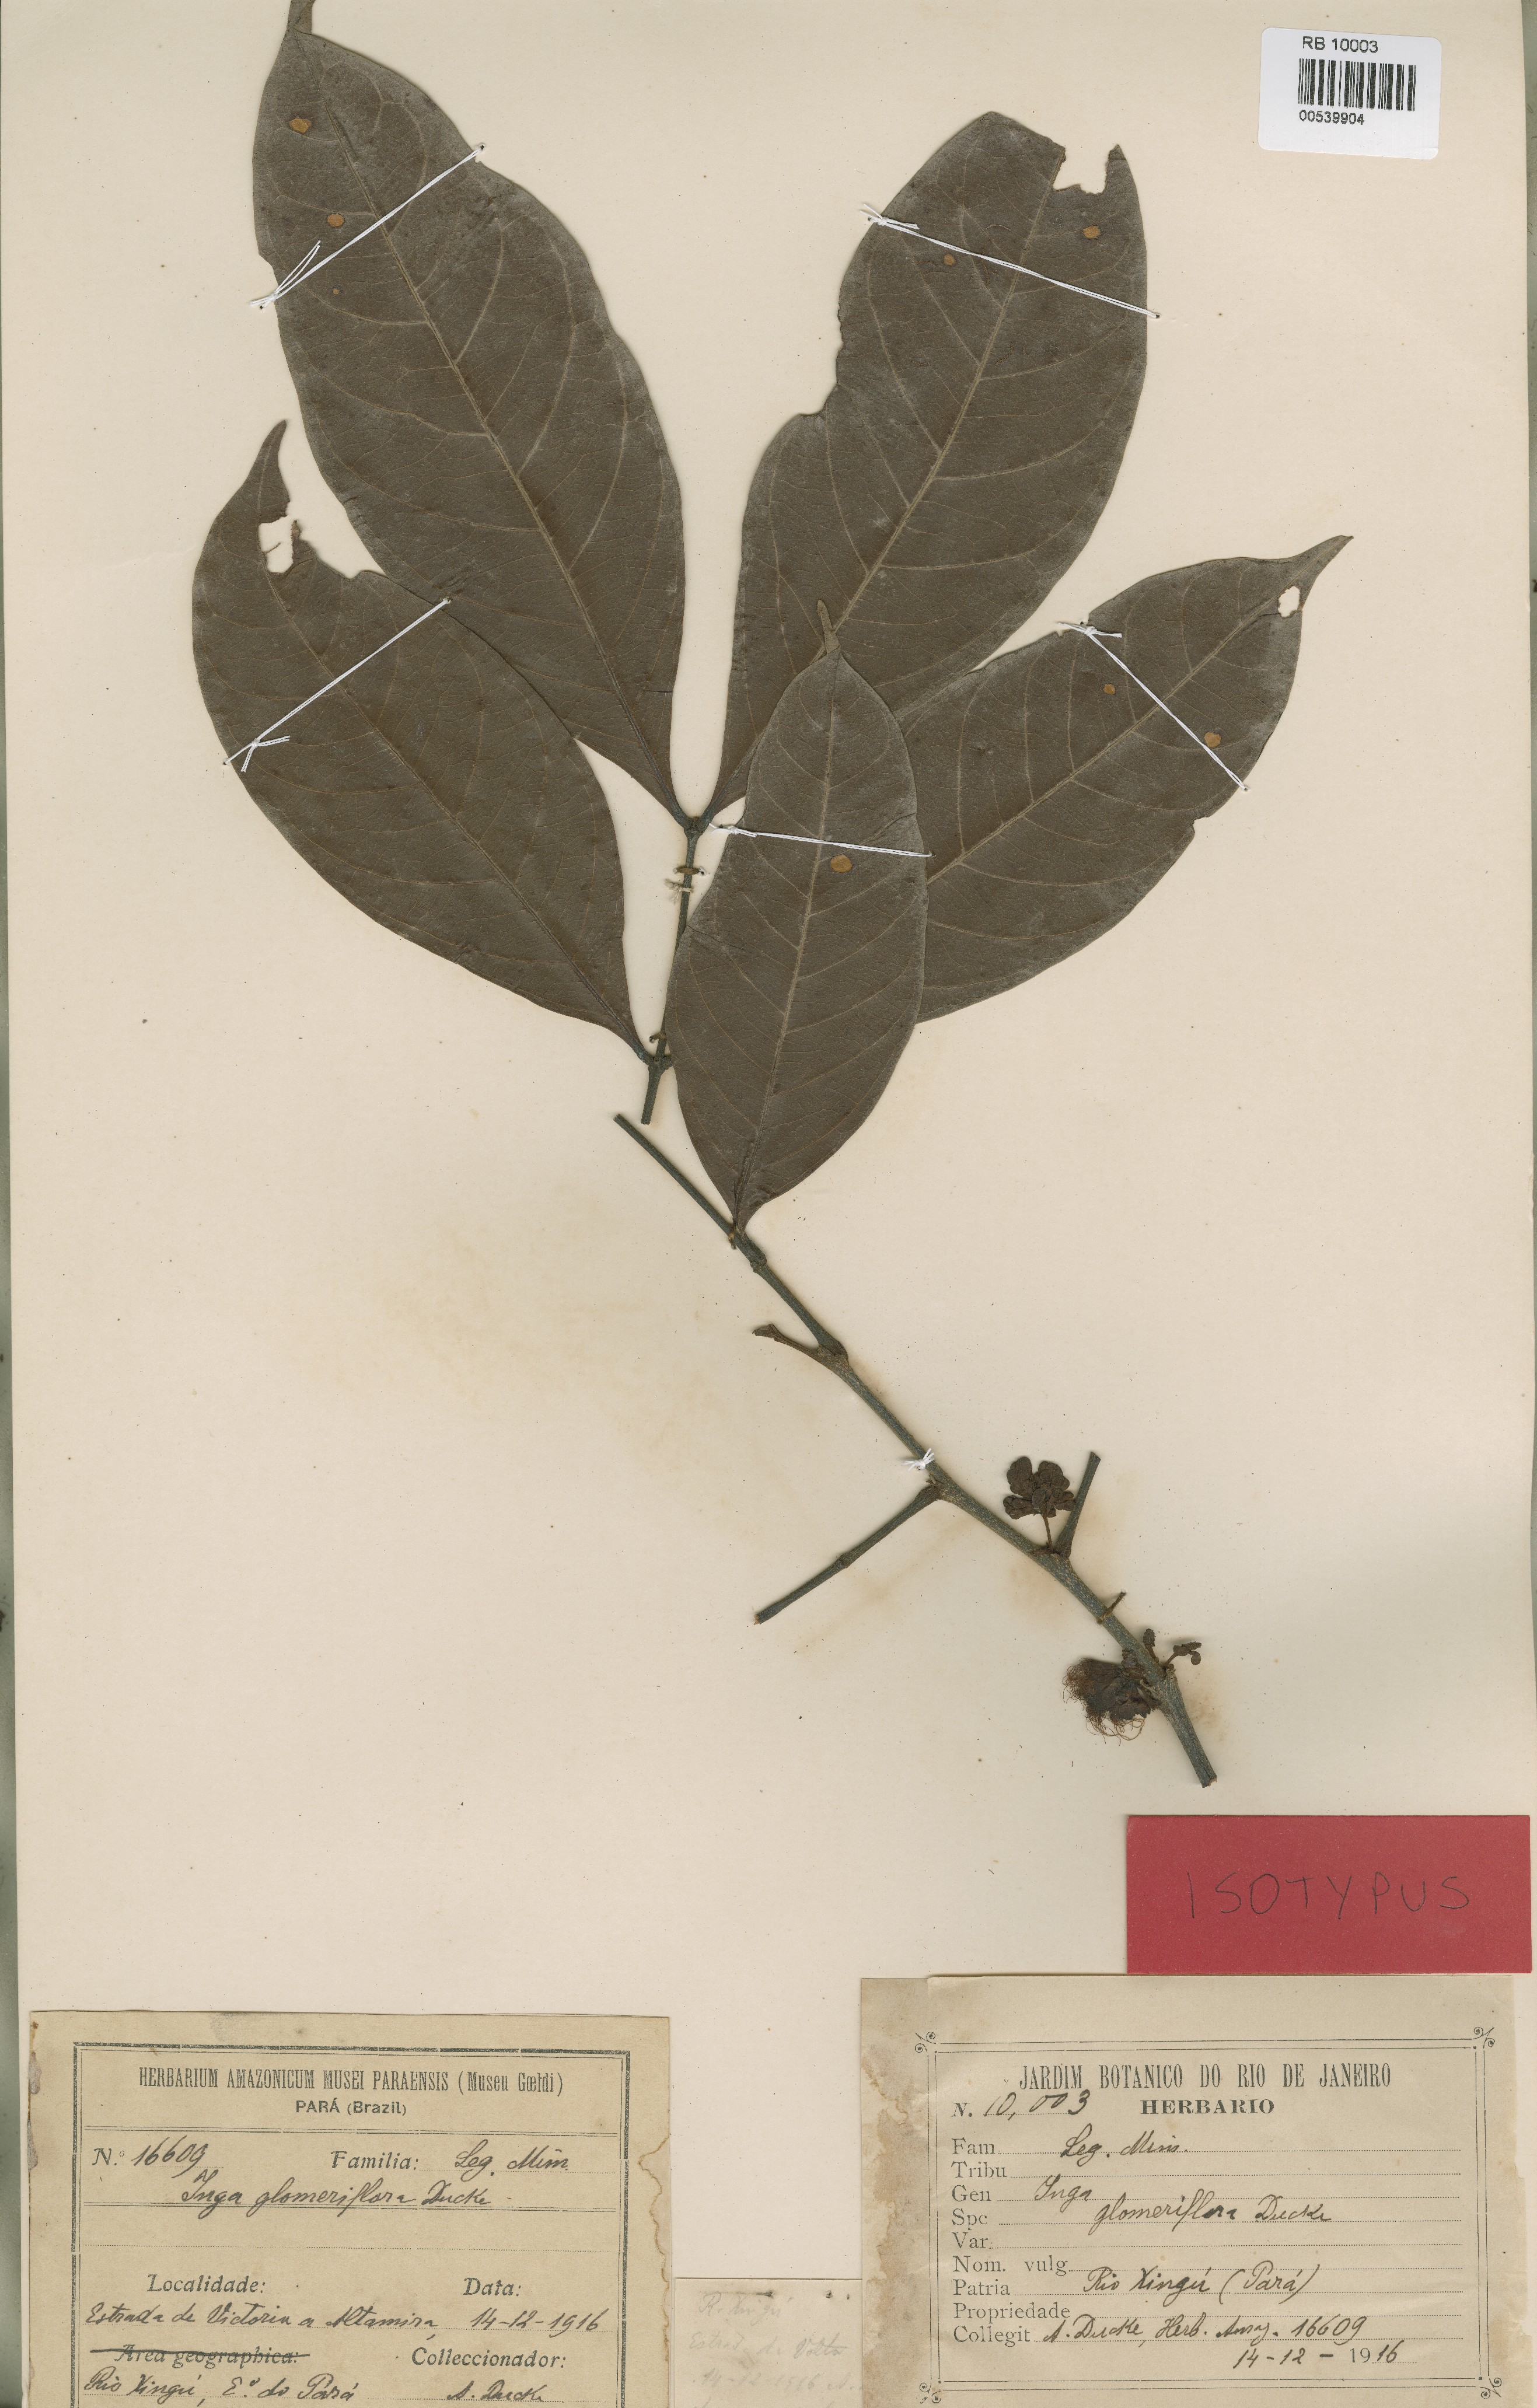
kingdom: Plantae
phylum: Tracheophyta
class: Magnoliopsida
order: Fabales
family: Fabaceae
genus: Inga
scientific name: Inga glomeriflora
